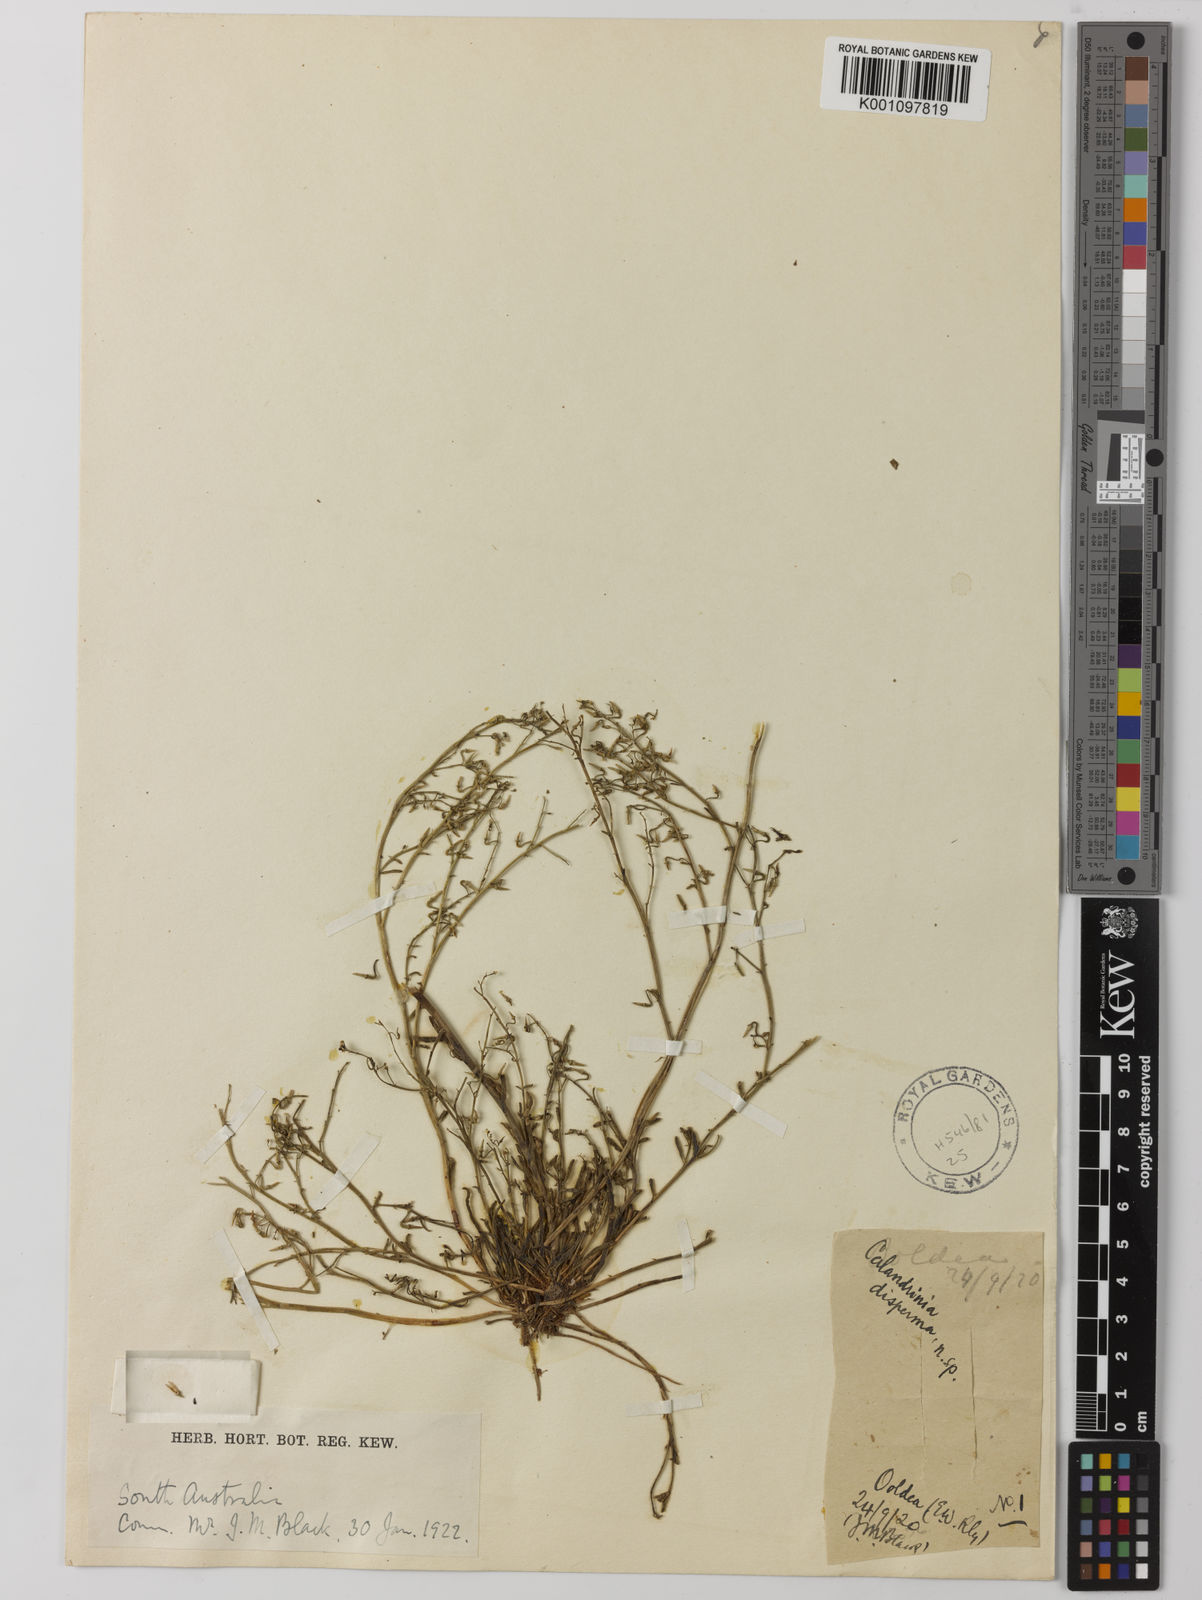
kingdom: Plantae
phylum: Tracheophyta
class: Magnoliopsida
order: Caryophyllales
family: Montiaceae
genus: Rumicastrum
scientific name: Rumicastrum dispermum
